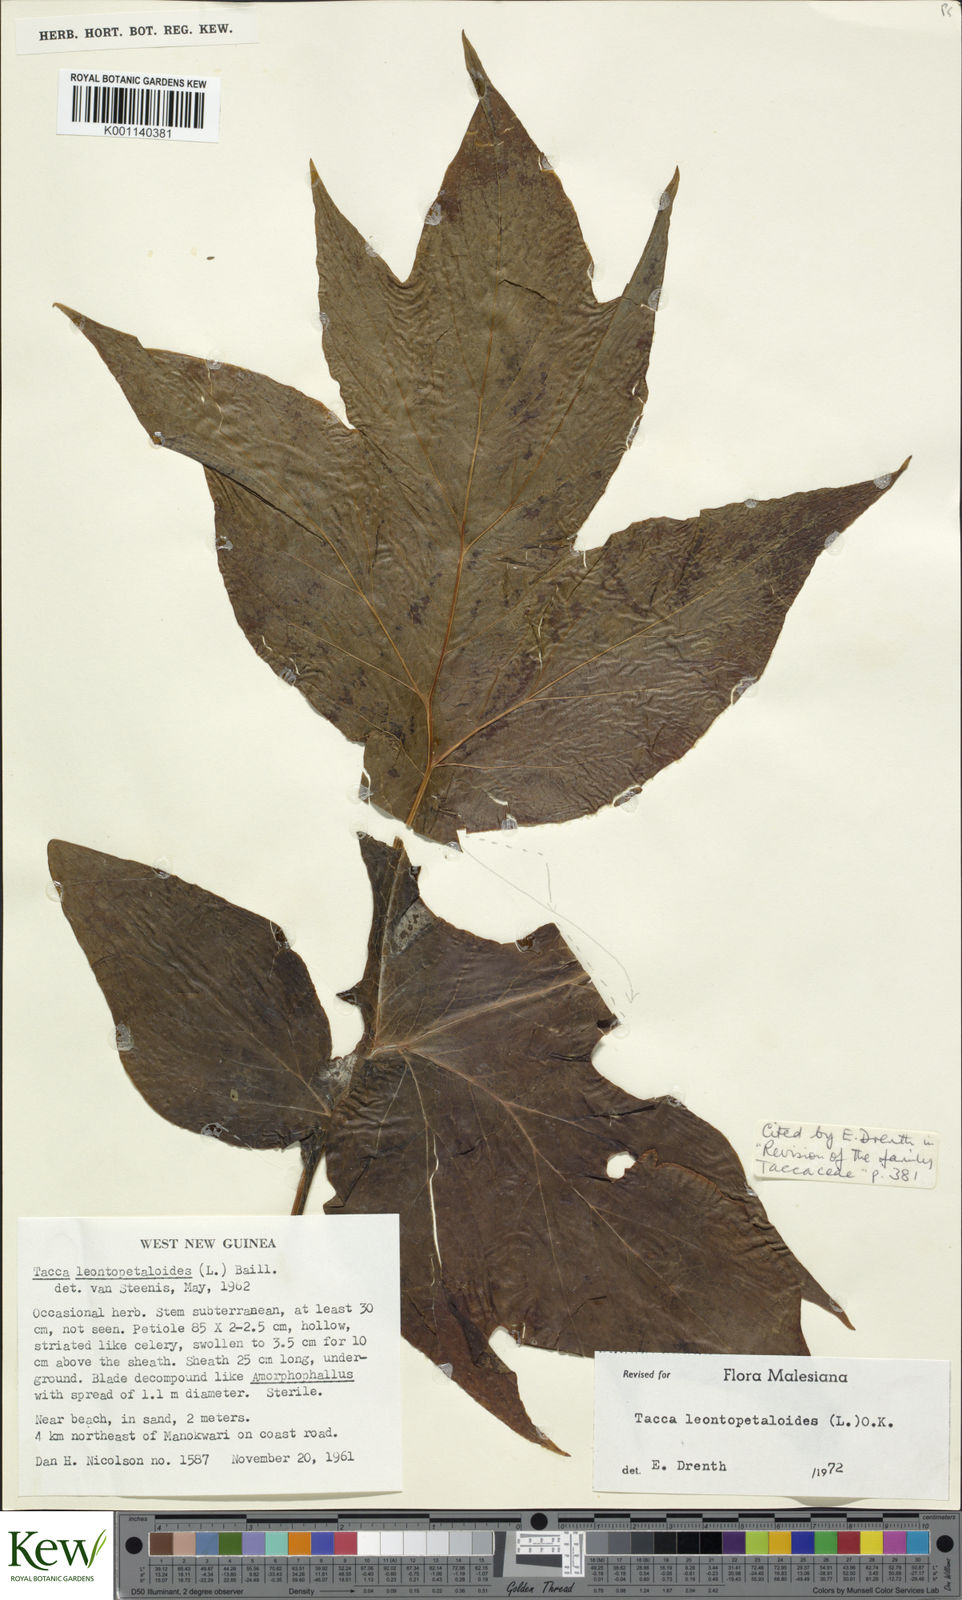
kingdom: Plantae
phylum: Tracheophyta
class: Liliopsida
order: Dioscoreales
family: Dioscoreaceae
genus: Tacca
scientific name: Tacca leontopetaloides
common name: Arrowroot
